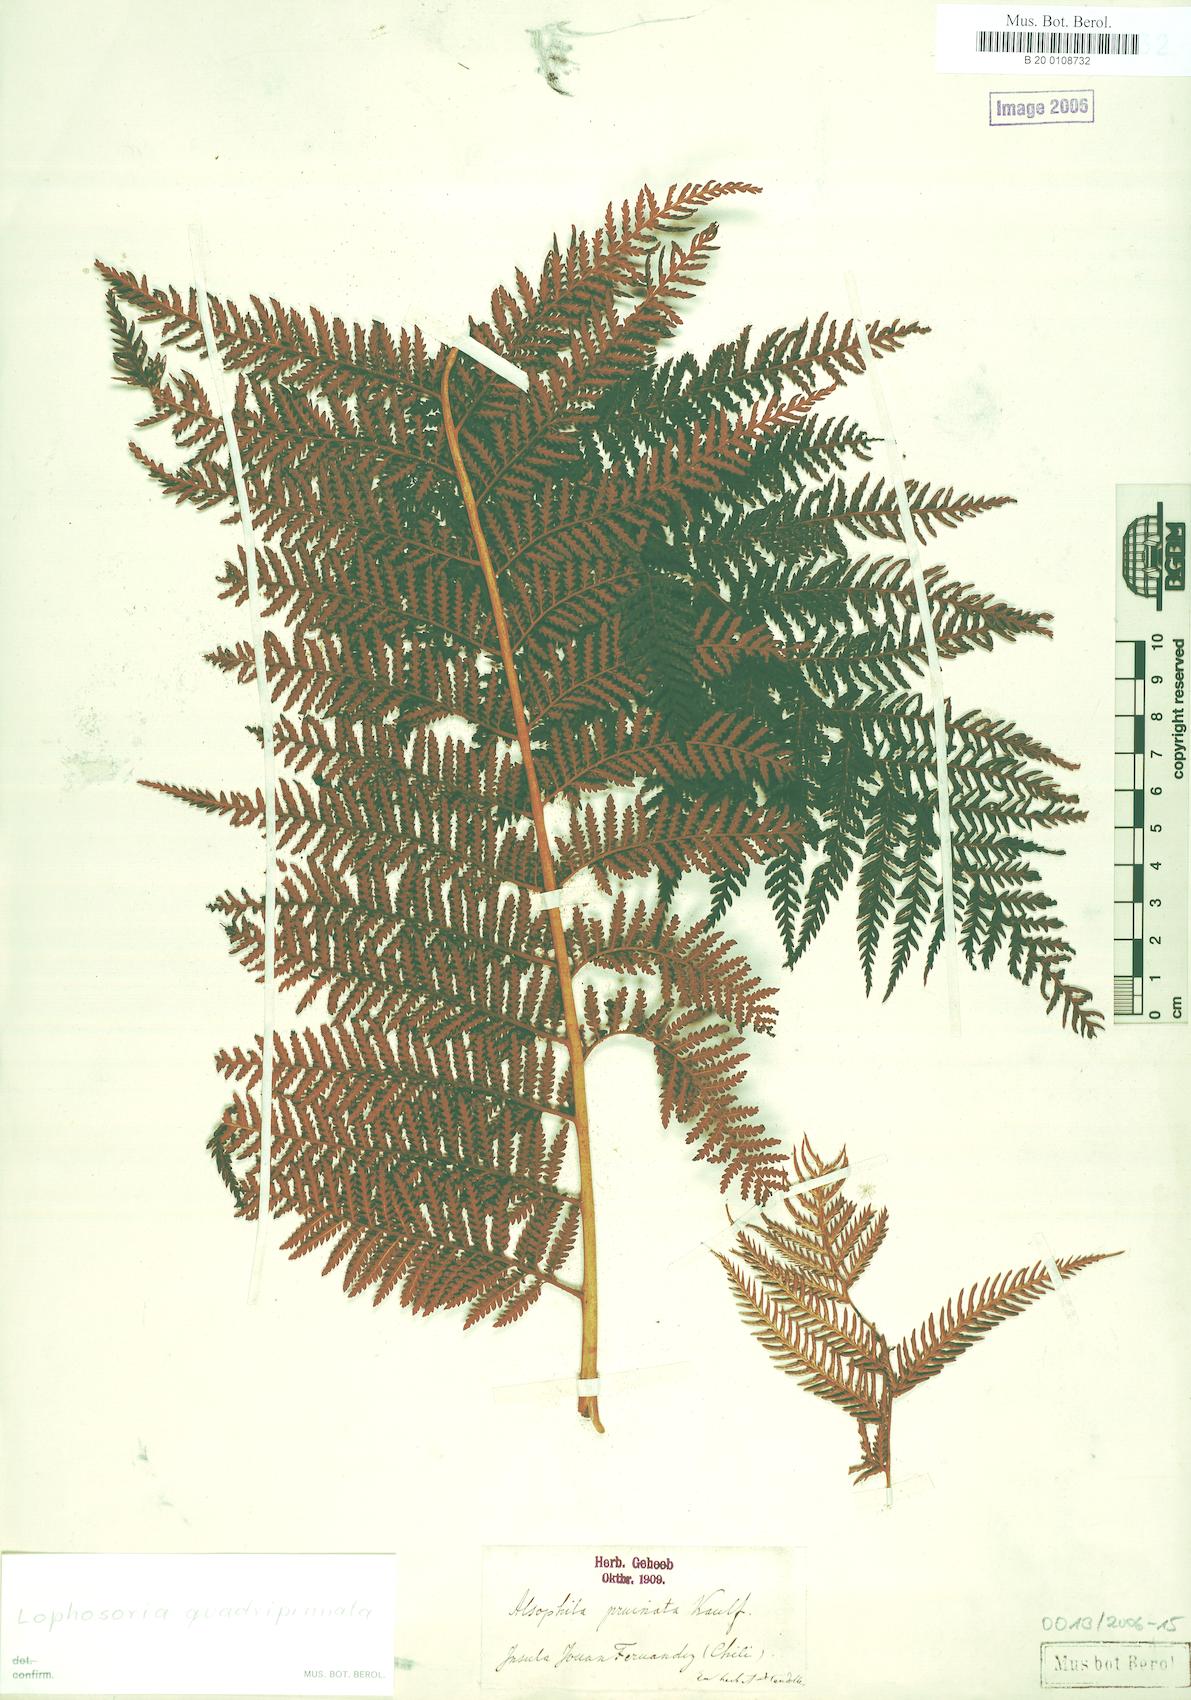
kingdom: Plantae
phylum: Tracheophyta
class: Polypodiopsida
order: Cyatheales
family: Dicksoniaceae
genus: Lophosoria
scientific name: Lophosoria quadripinnata
